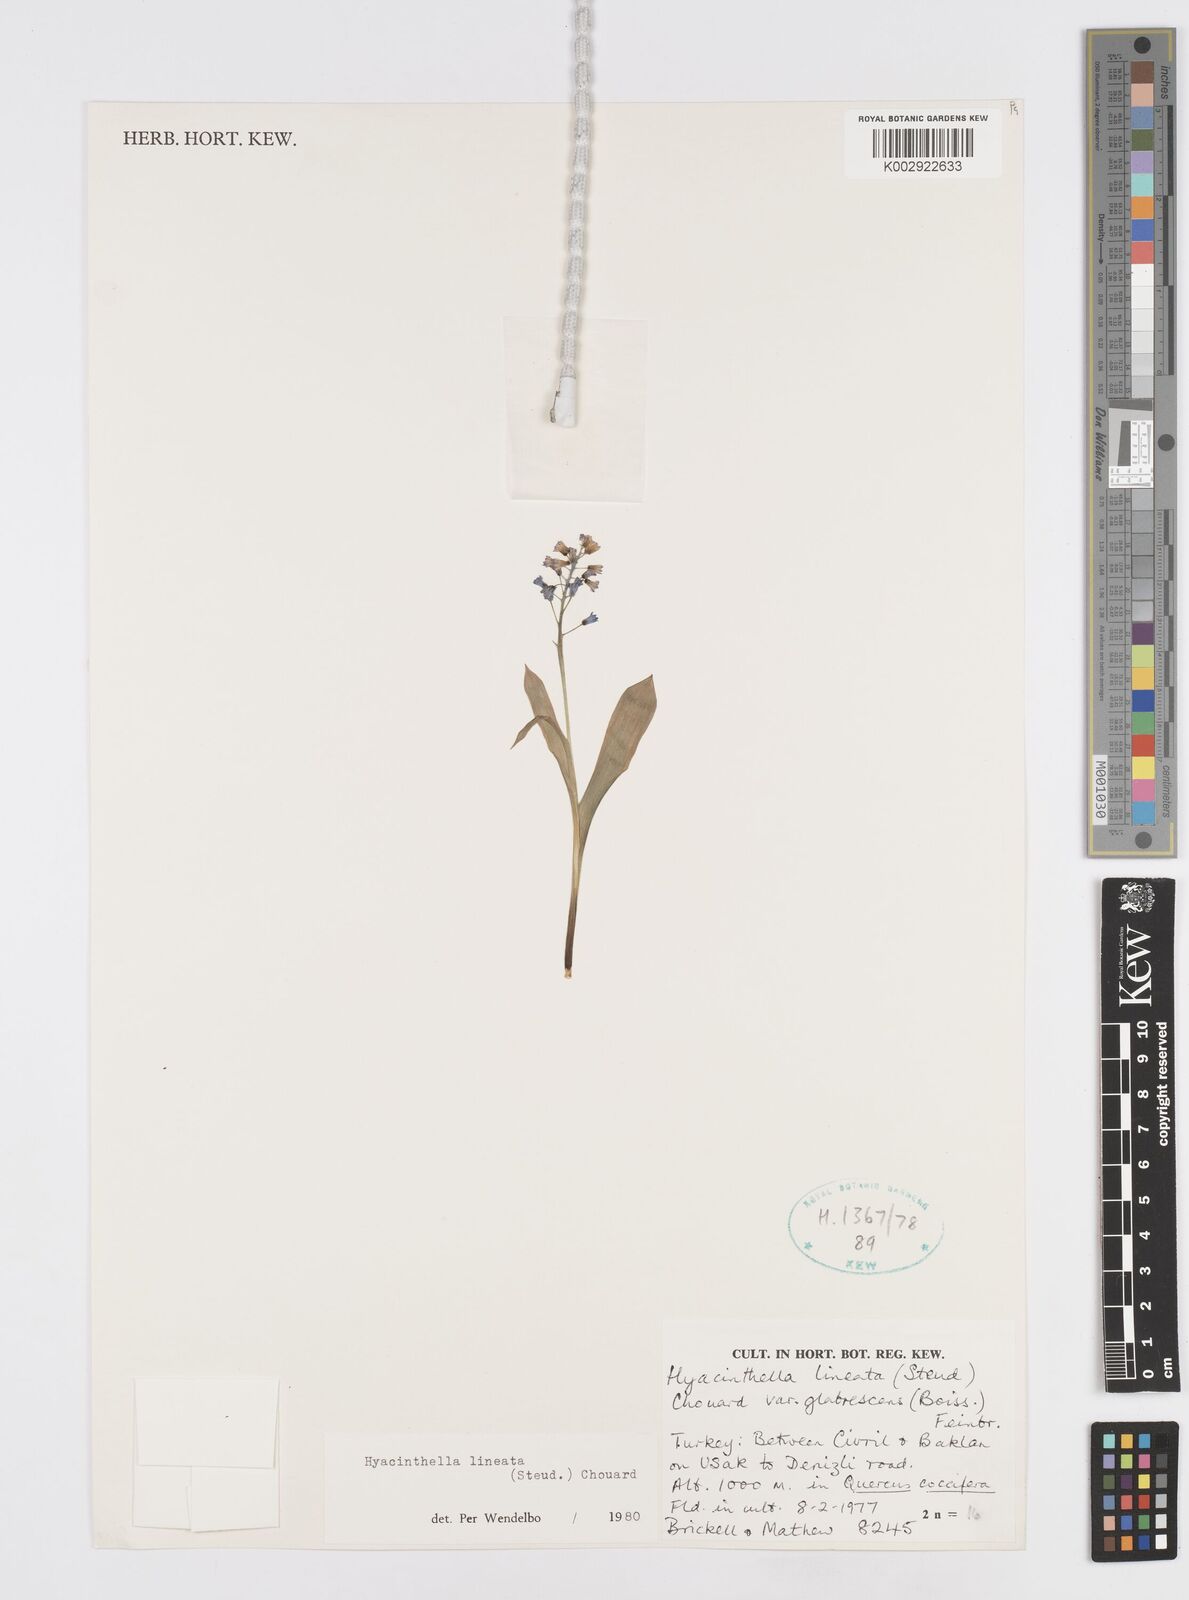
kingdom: Plantae
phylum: Tracheophyta
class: Liliopsida
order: Asparagales
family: Asparagaceae
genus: Hyacinthella
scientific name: Hyacinthella lineata
